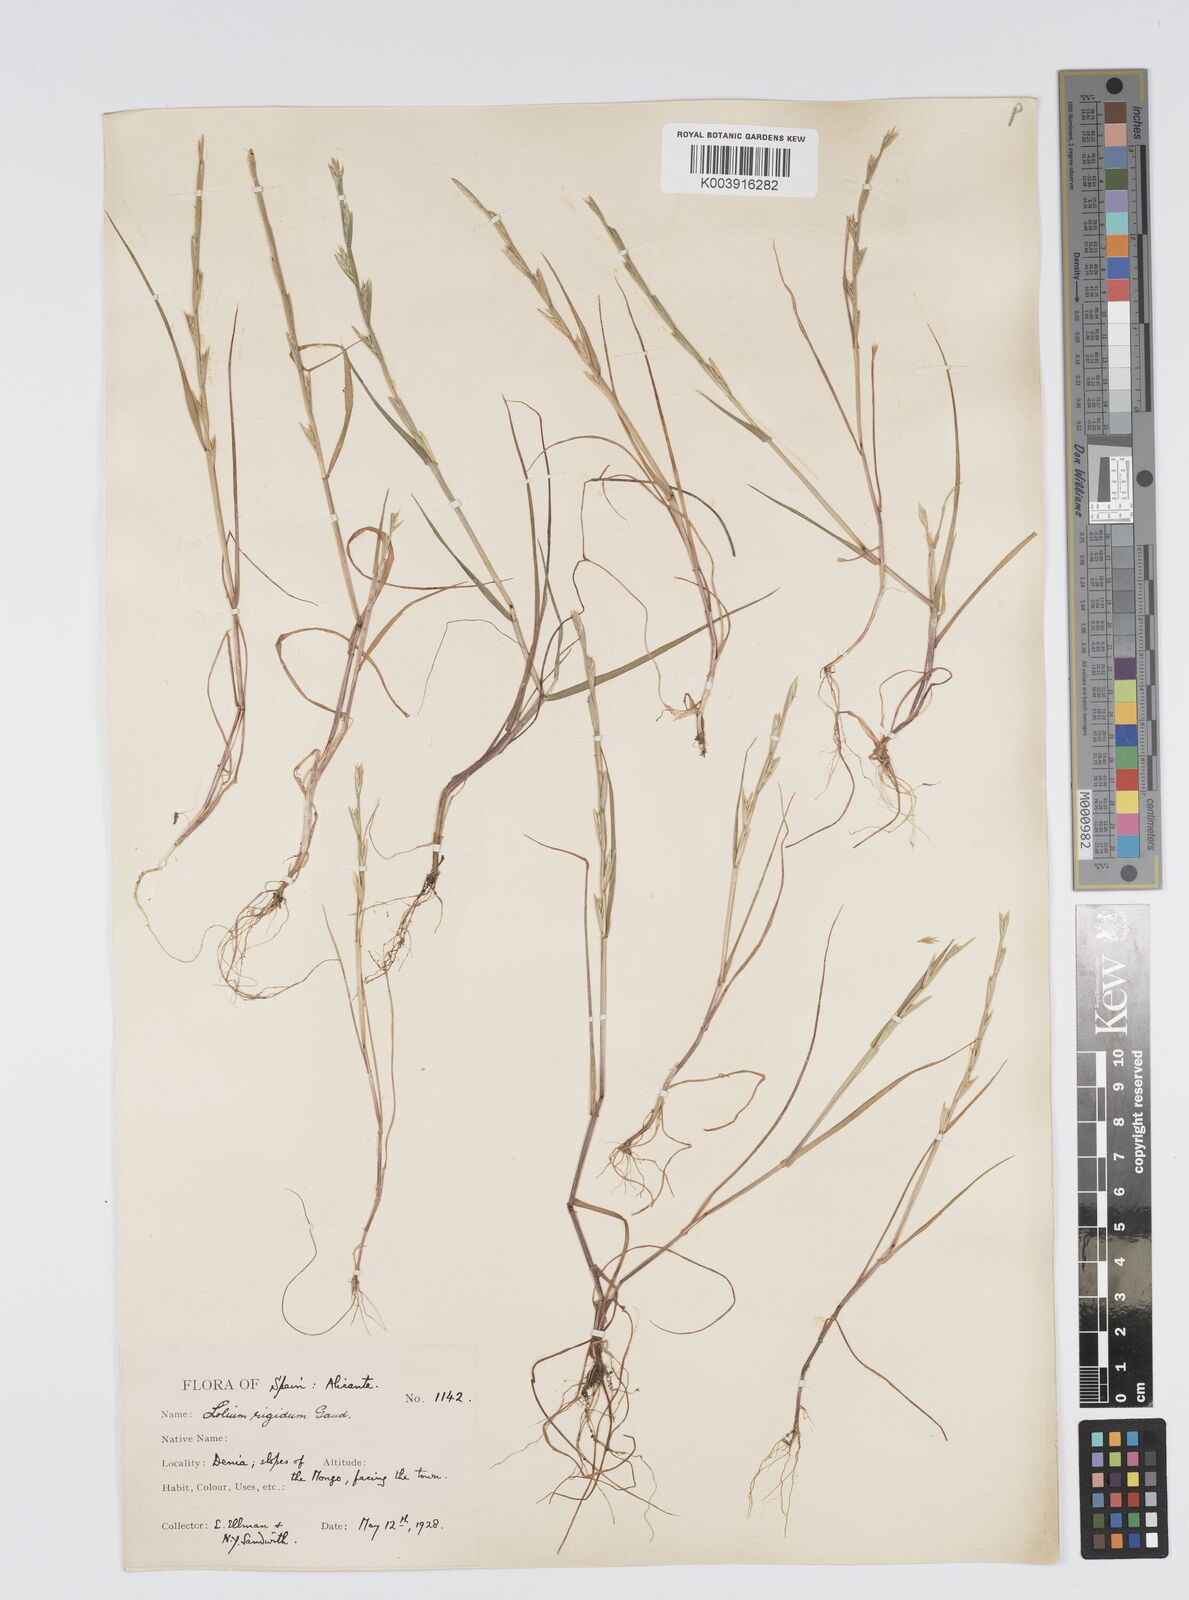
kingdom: Plantae
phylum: Tracheophyta
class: Liliopsida
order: Poales
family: Poaceae
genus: Lolium
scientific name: Lolium rigidum
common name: Wimmera ryegrass
